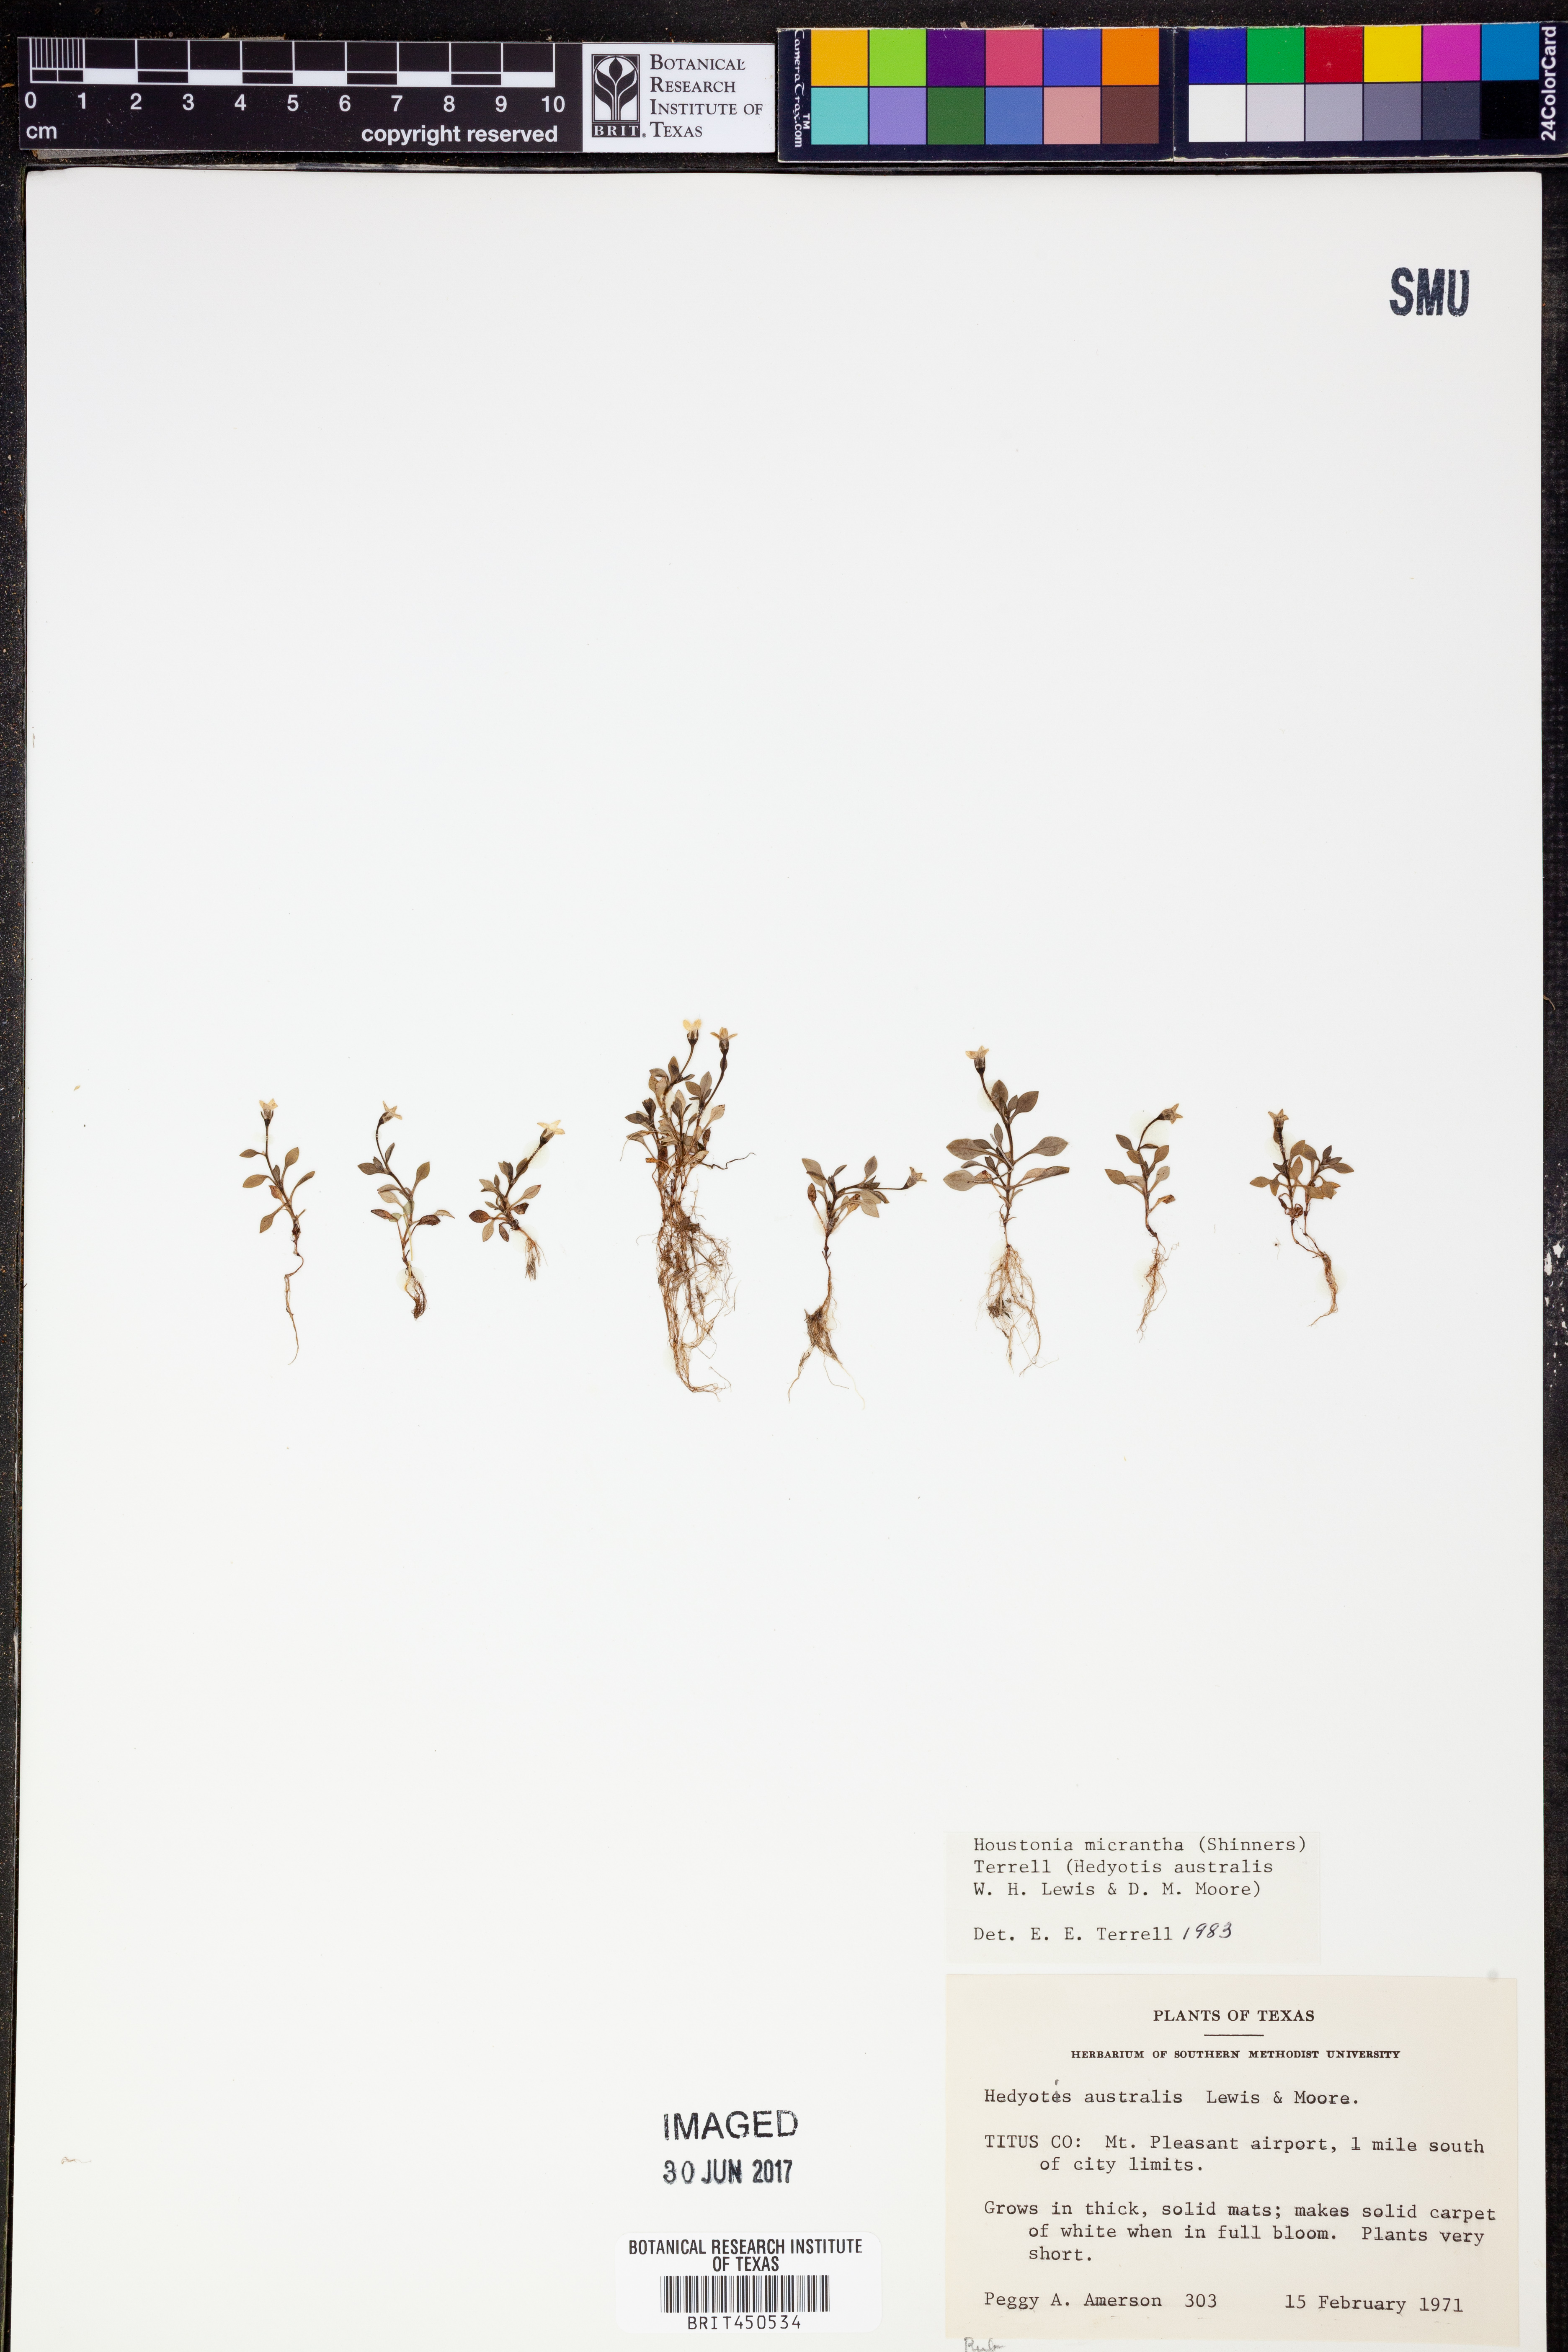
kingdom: Plantae
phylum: Tracheophyta
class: Magnoliopsida
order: Gentianales
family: Rubiaceae
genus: Houstonia
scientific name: Houstonia micrantha
